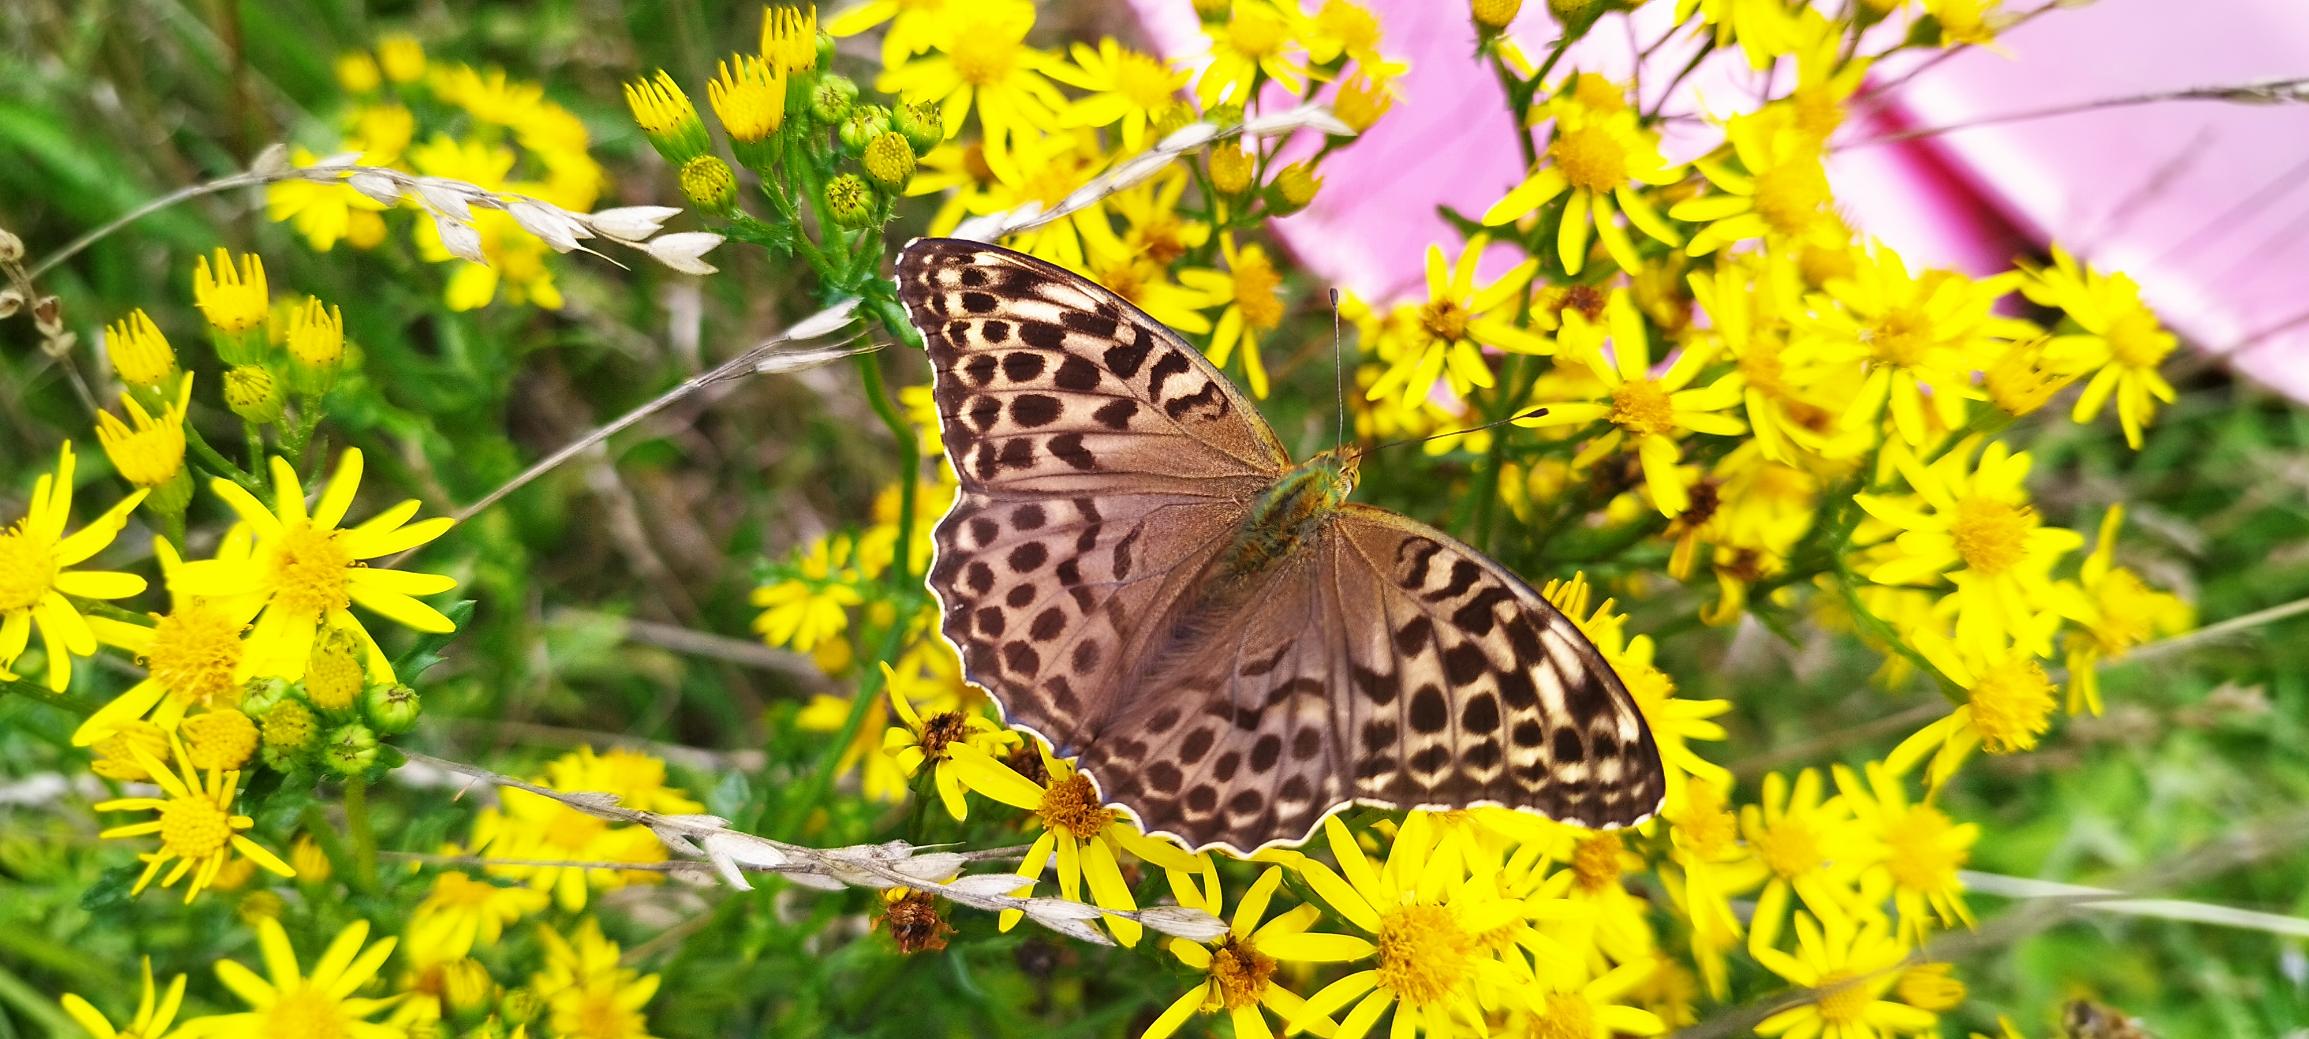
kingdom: Animalia
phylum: Arthropoda
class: Insecta
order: Lepidoptera
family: Nymphalidae
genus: Argynnis
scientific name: Argynnis paphia
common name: Kejserkåbe
